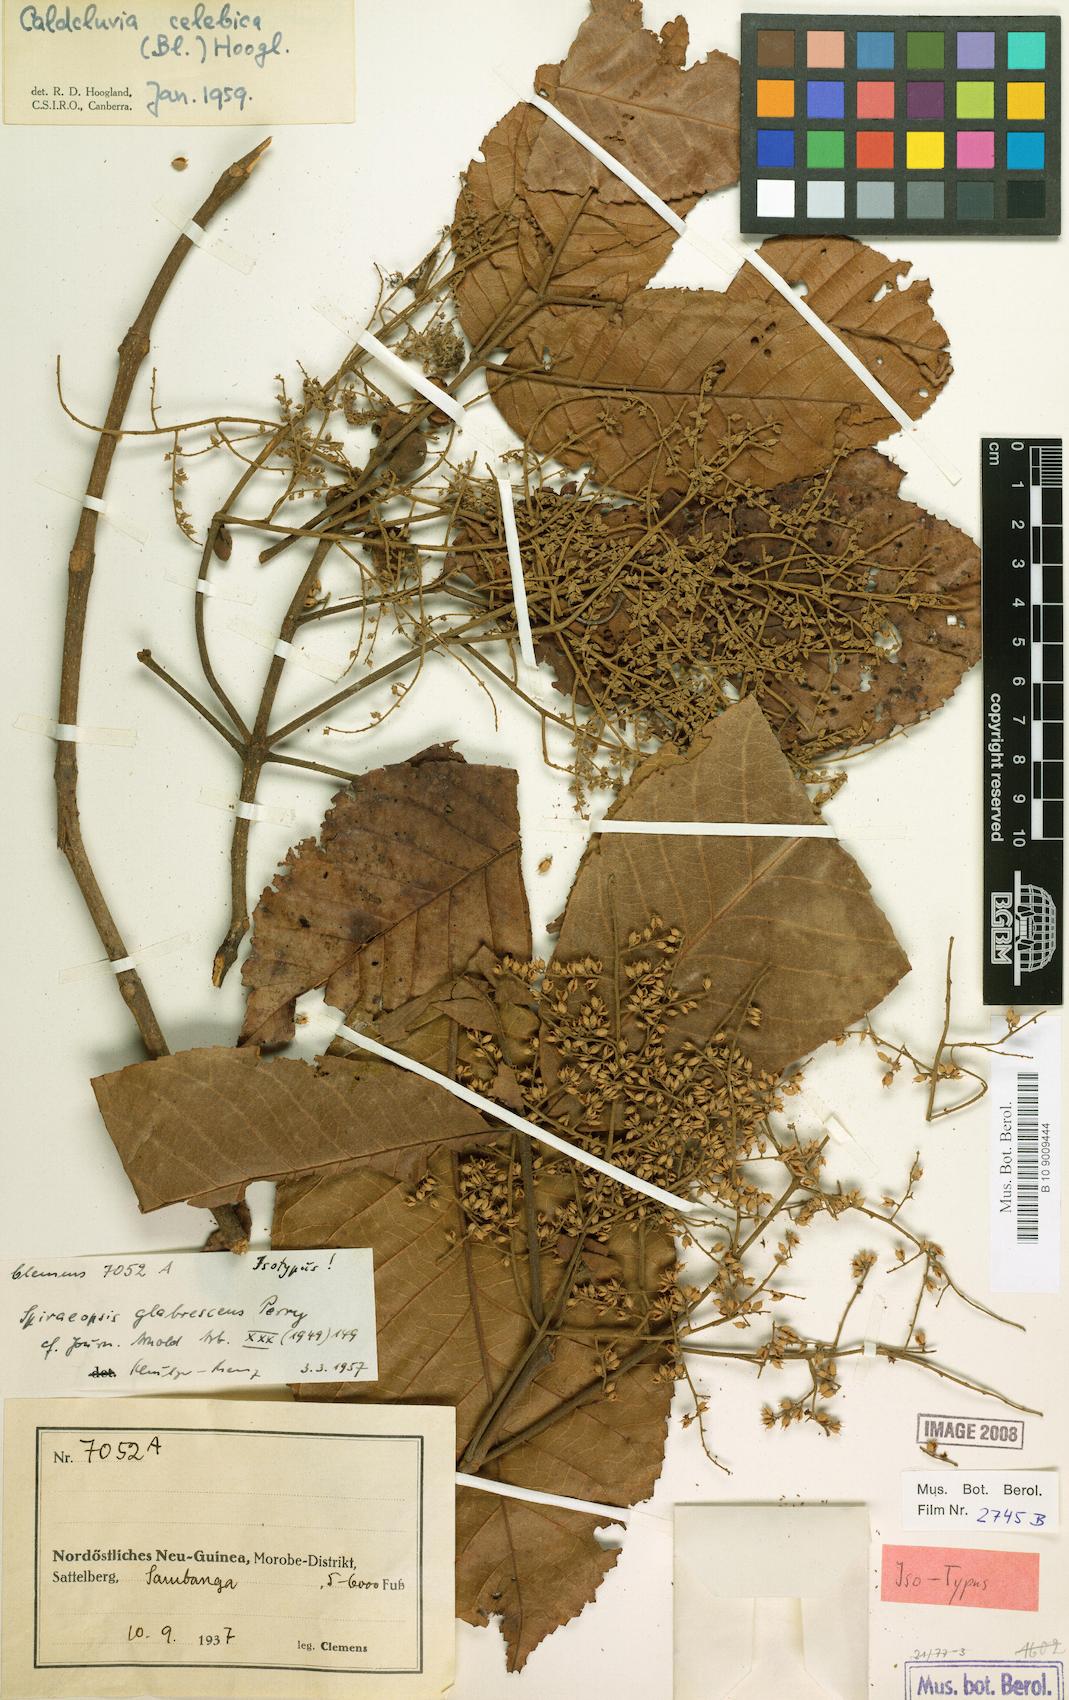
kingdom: Plantae
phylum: Tracheophyta
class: Magnoliopsida
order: Oxalidales
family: Cunoniaceae
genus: Ackama
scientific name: Ackama celebica
